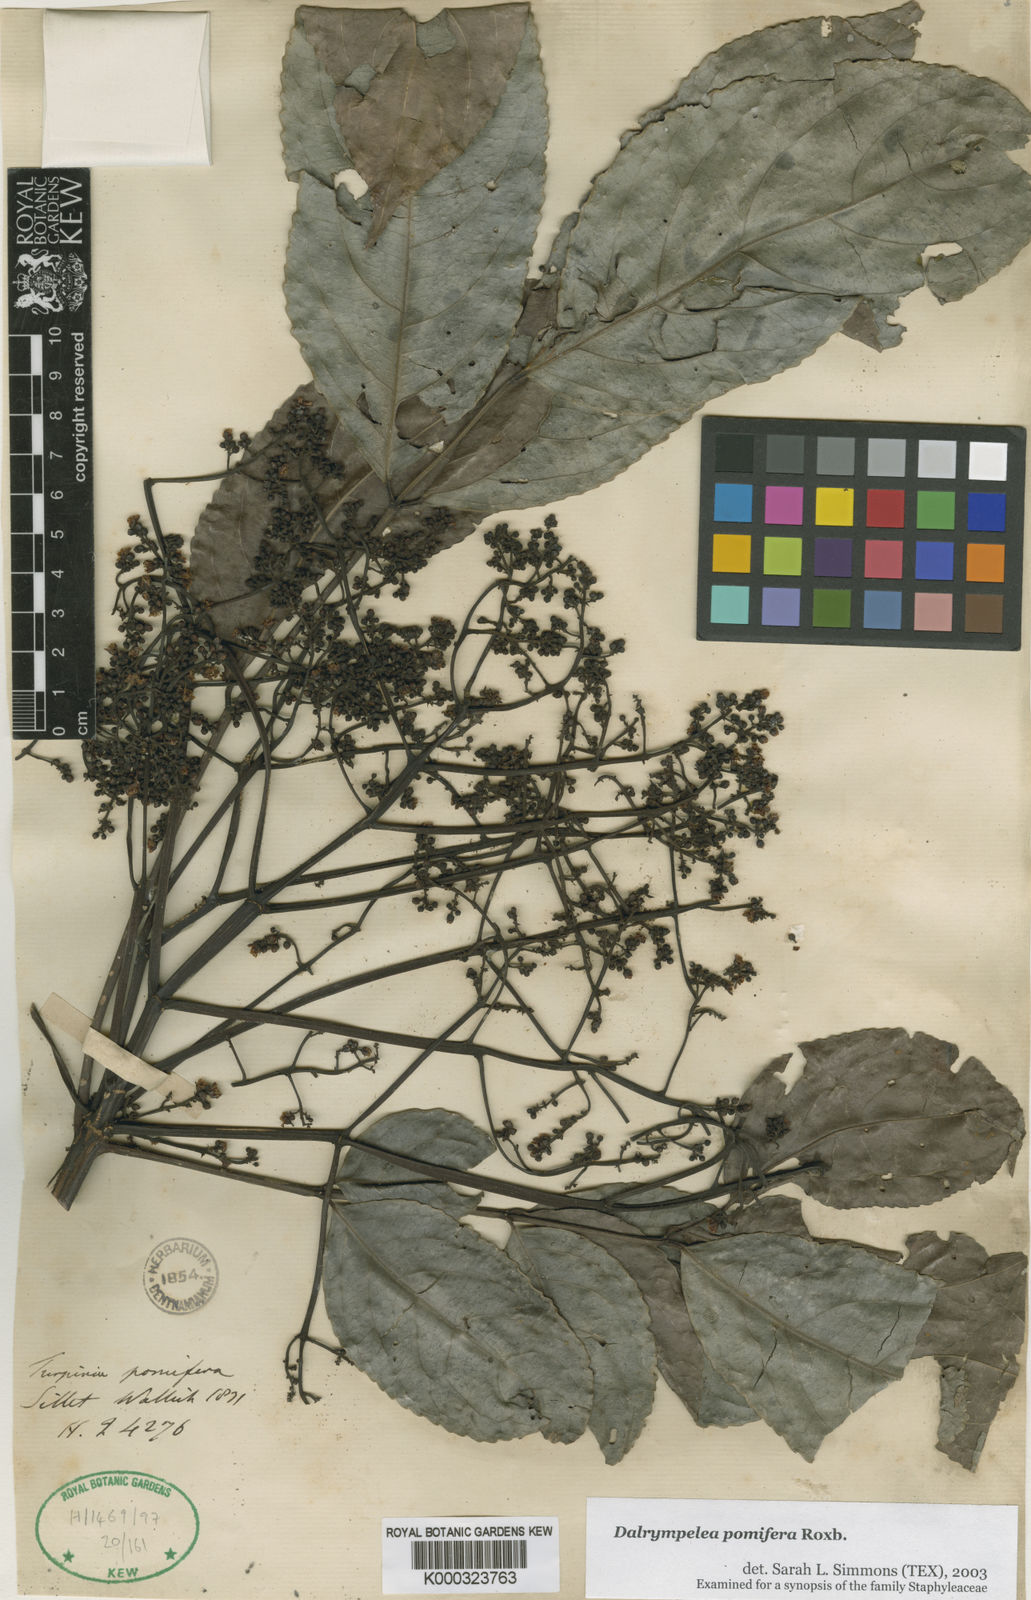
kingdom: Plantae
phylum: Tracheophyta
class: Magnoliopsida
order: Crossosomatales
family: Staphyleaceae
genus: Dalrympelea
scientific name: Dalrympelea pomifera
